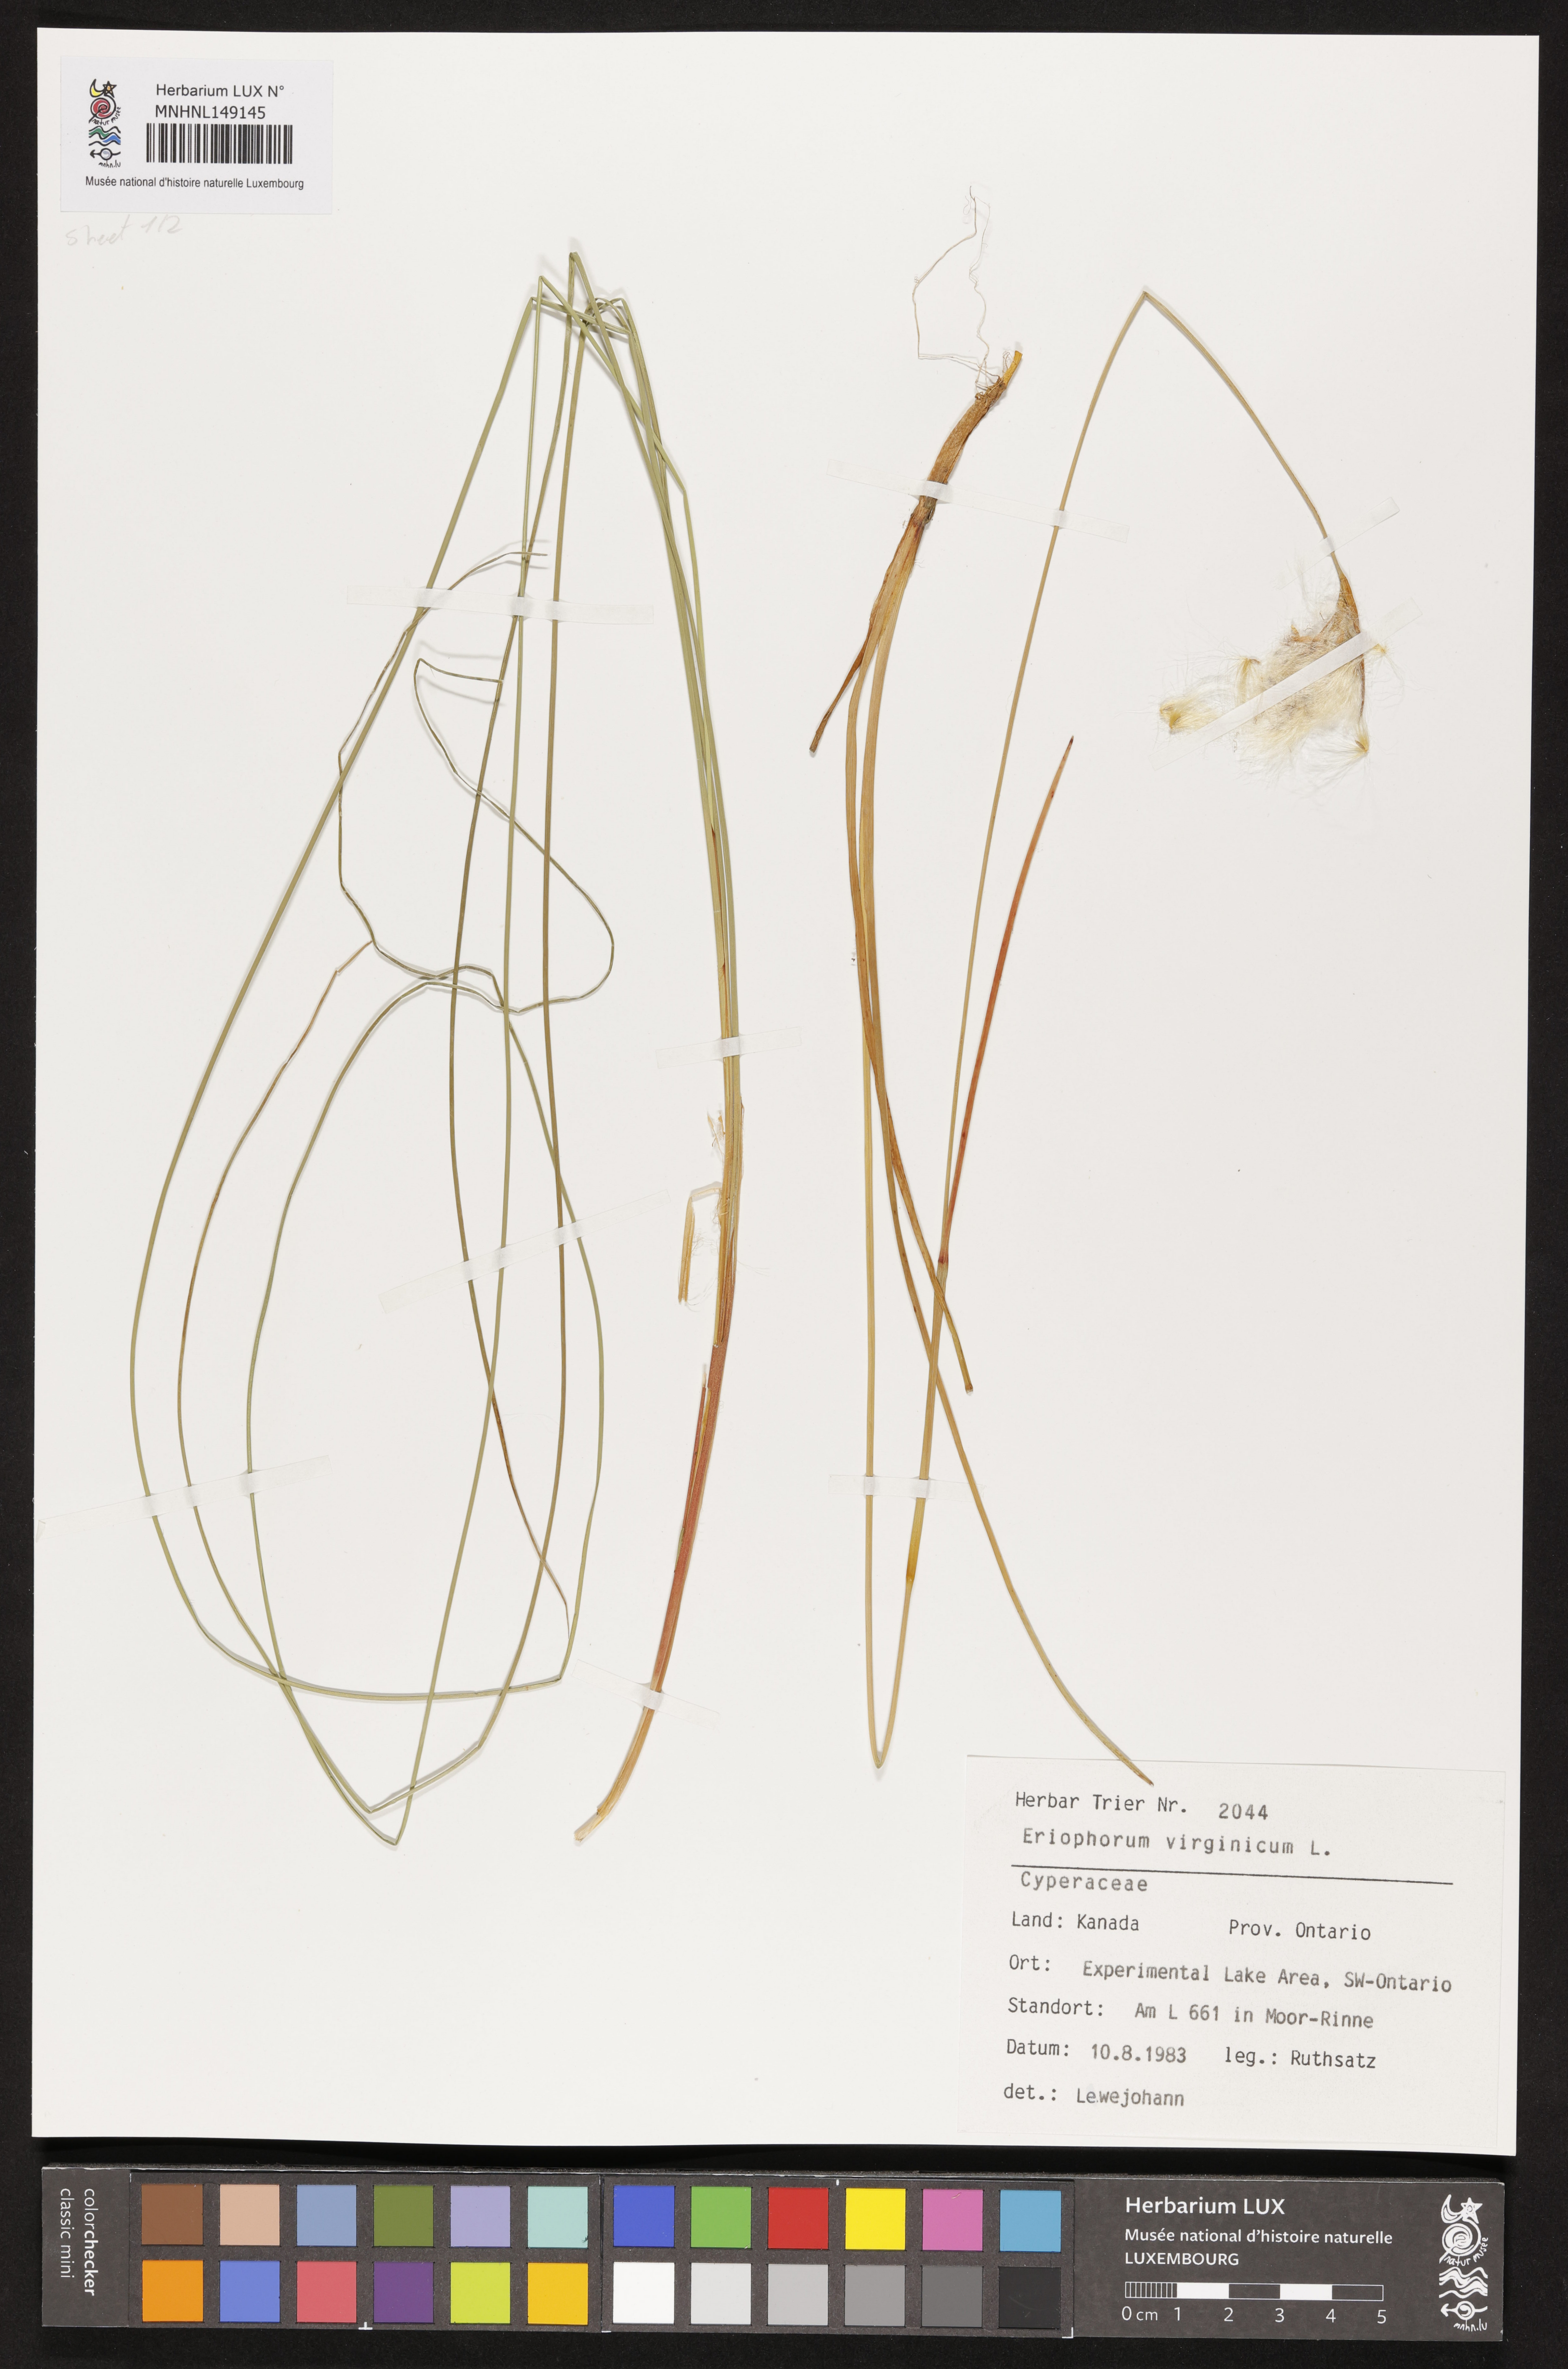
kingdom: Plantae
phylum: Tracheophyta
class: Liliopsida
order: Poales
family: Cyperaceae
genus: Eriophorum
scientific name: Eriophorum virginicum
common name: Tawny cottongrass
